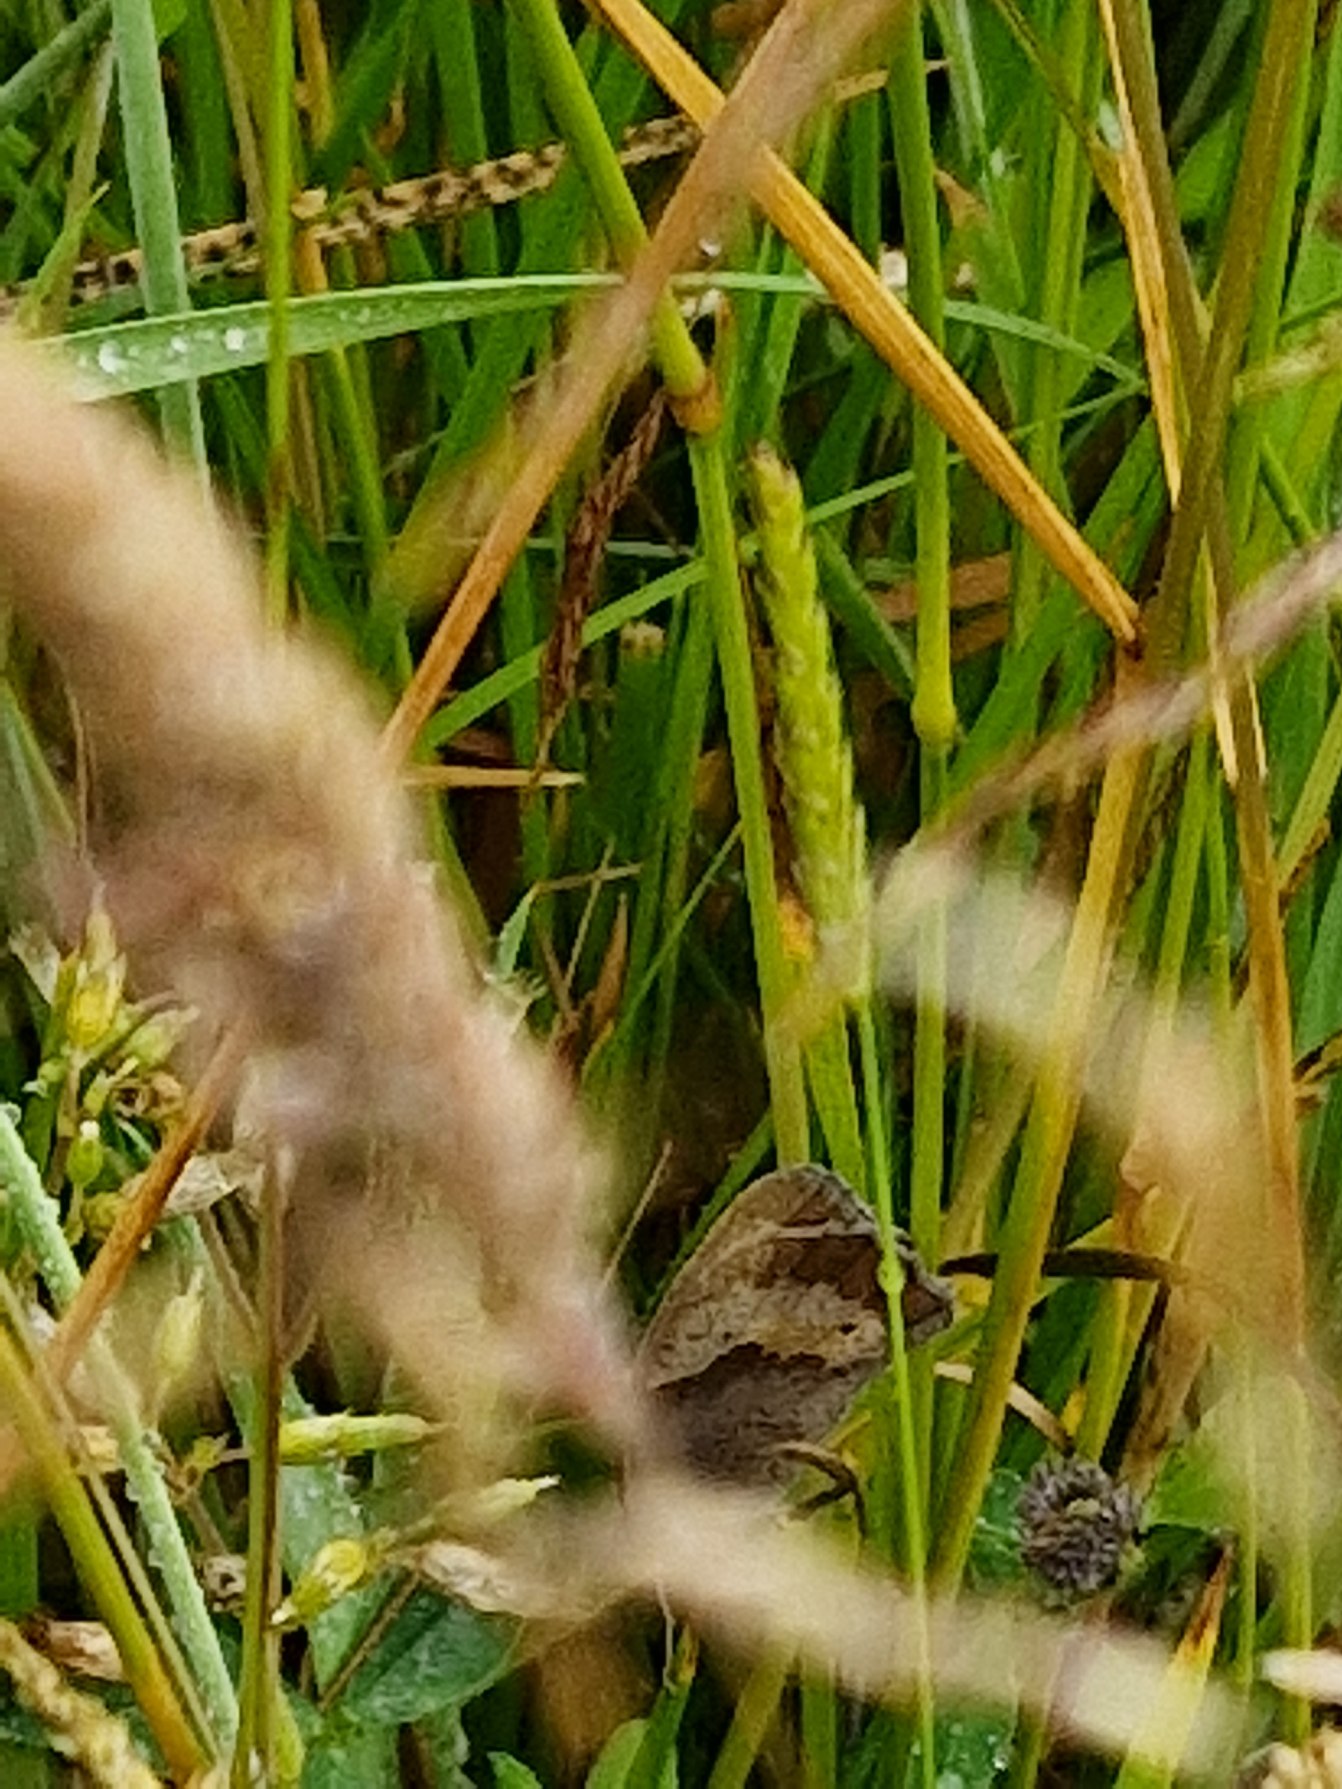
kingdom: Animalia
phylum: Arthropoda
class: Insecta
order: Lepidoptera
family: Nymphalidae
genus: Maniola
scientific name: Maniola jurtina
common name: Græsrandøje
